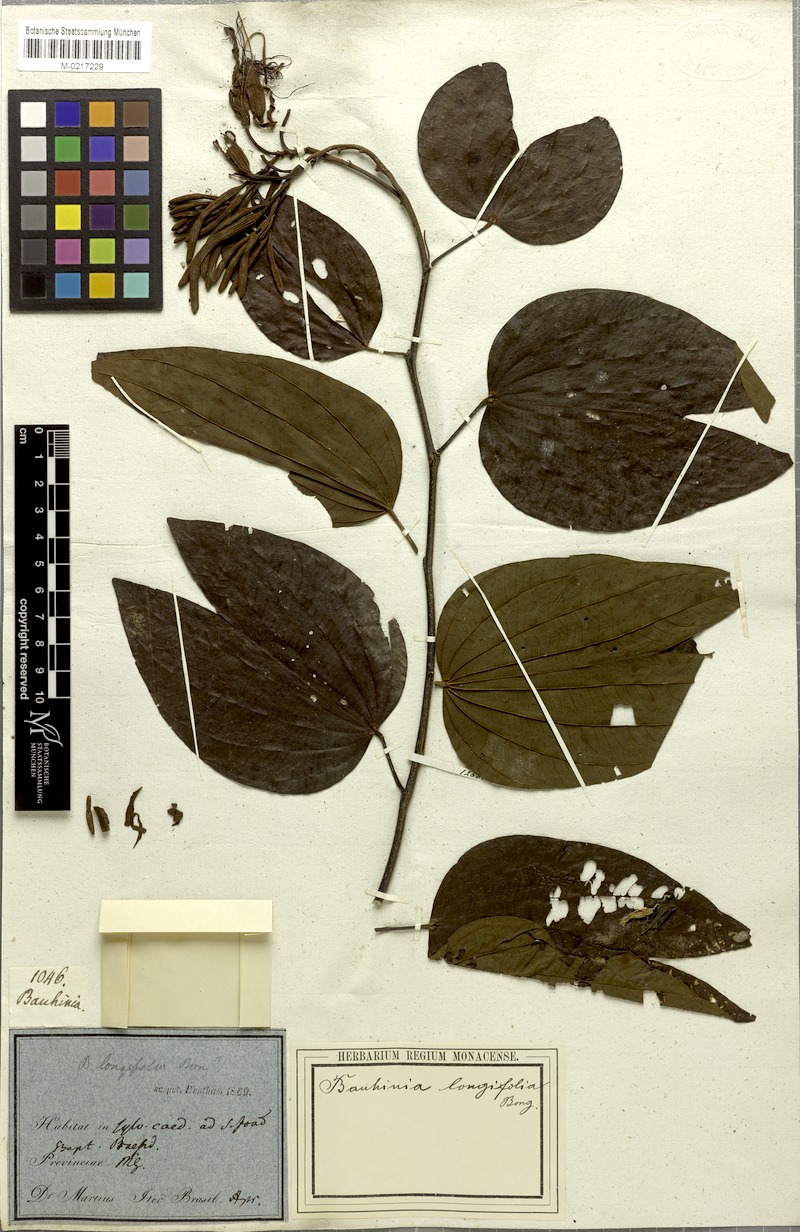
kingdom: Plantae
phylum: Tracheophyta
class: Magnoliopsida
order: Fabales
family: Fabaceae
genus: Bauhinia
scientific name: Bauhinia longifolia
